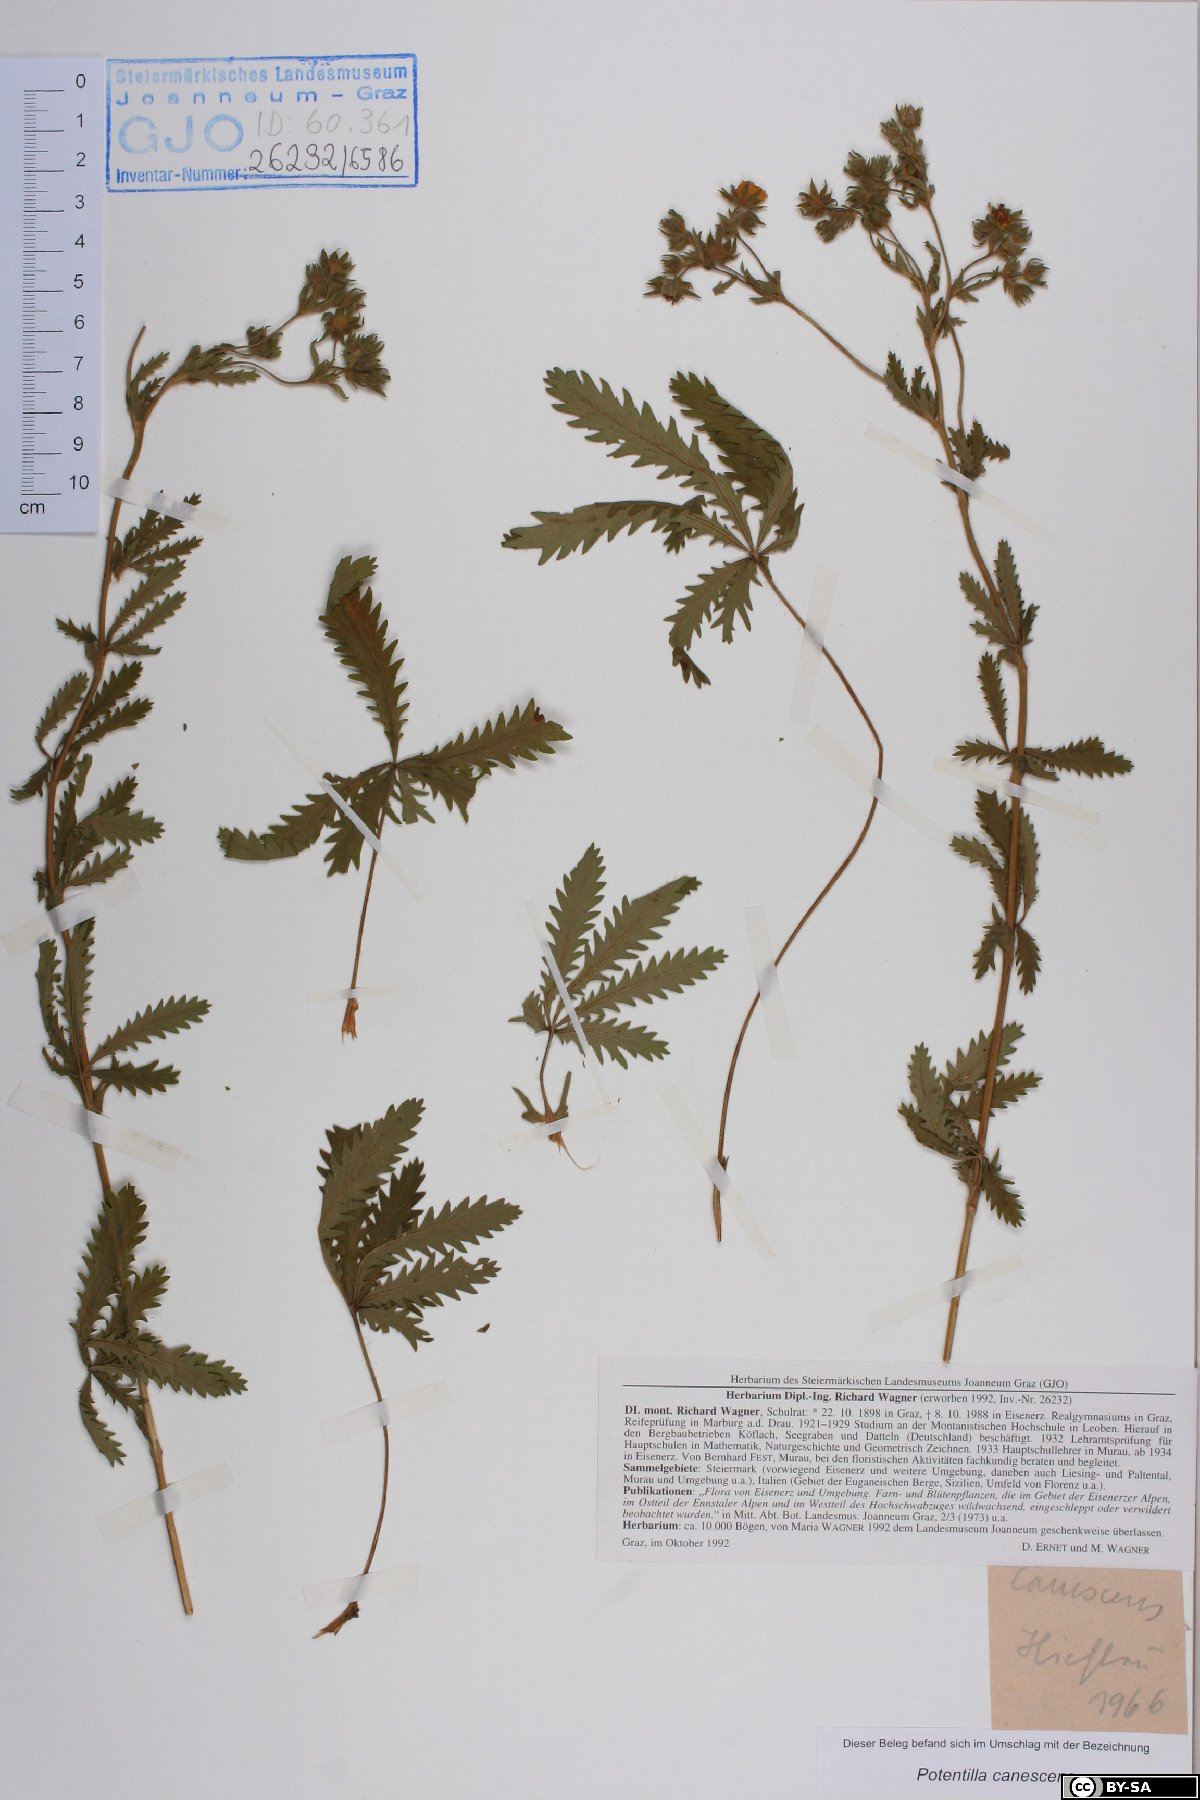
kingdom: Plantae
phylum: Tracheophyta
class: Magnoliopsida
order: Rosales
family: Rosaceae
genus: Potentilla
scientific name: Potentilla inclinata
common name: Grey cinquefoil
